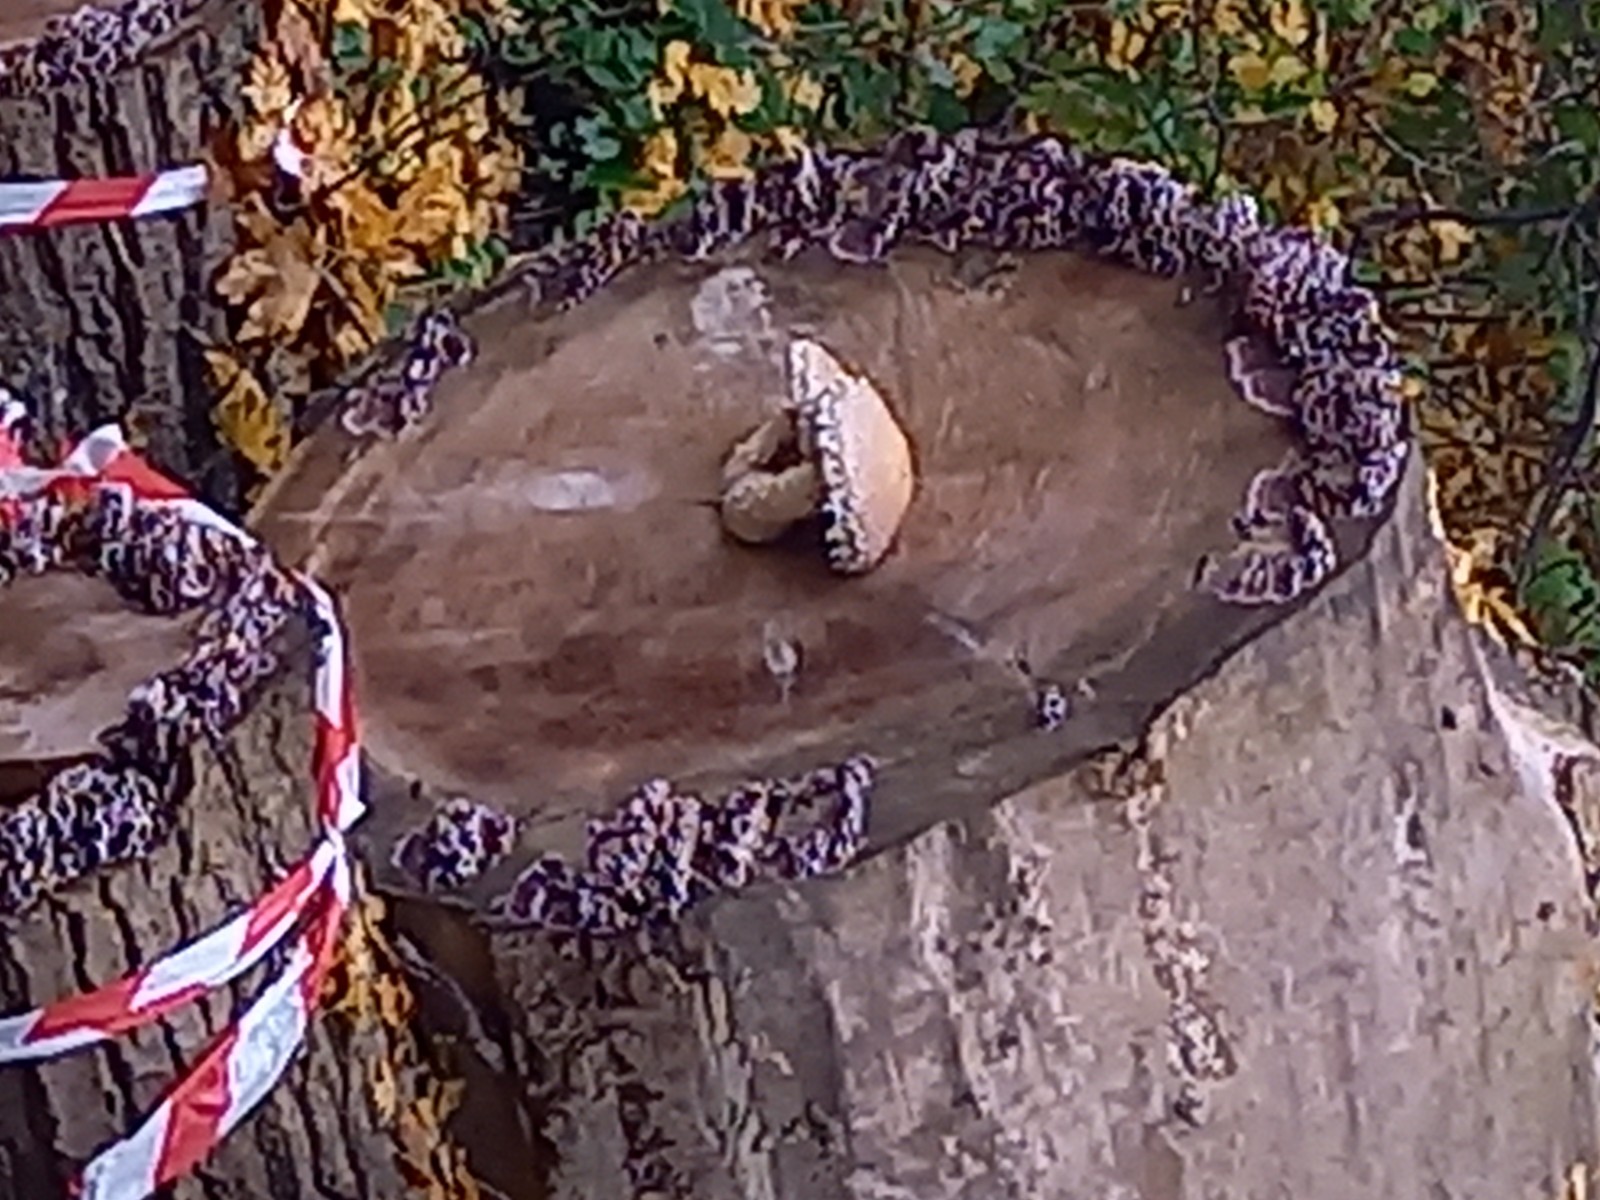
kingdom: Fungi
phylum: Basidiomycota
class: Agaricomycetes
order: Agaricales
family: Strophariaceae
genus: Pholiota
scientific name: Pholiota populnea
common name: poppel-kæmpeskælhat
